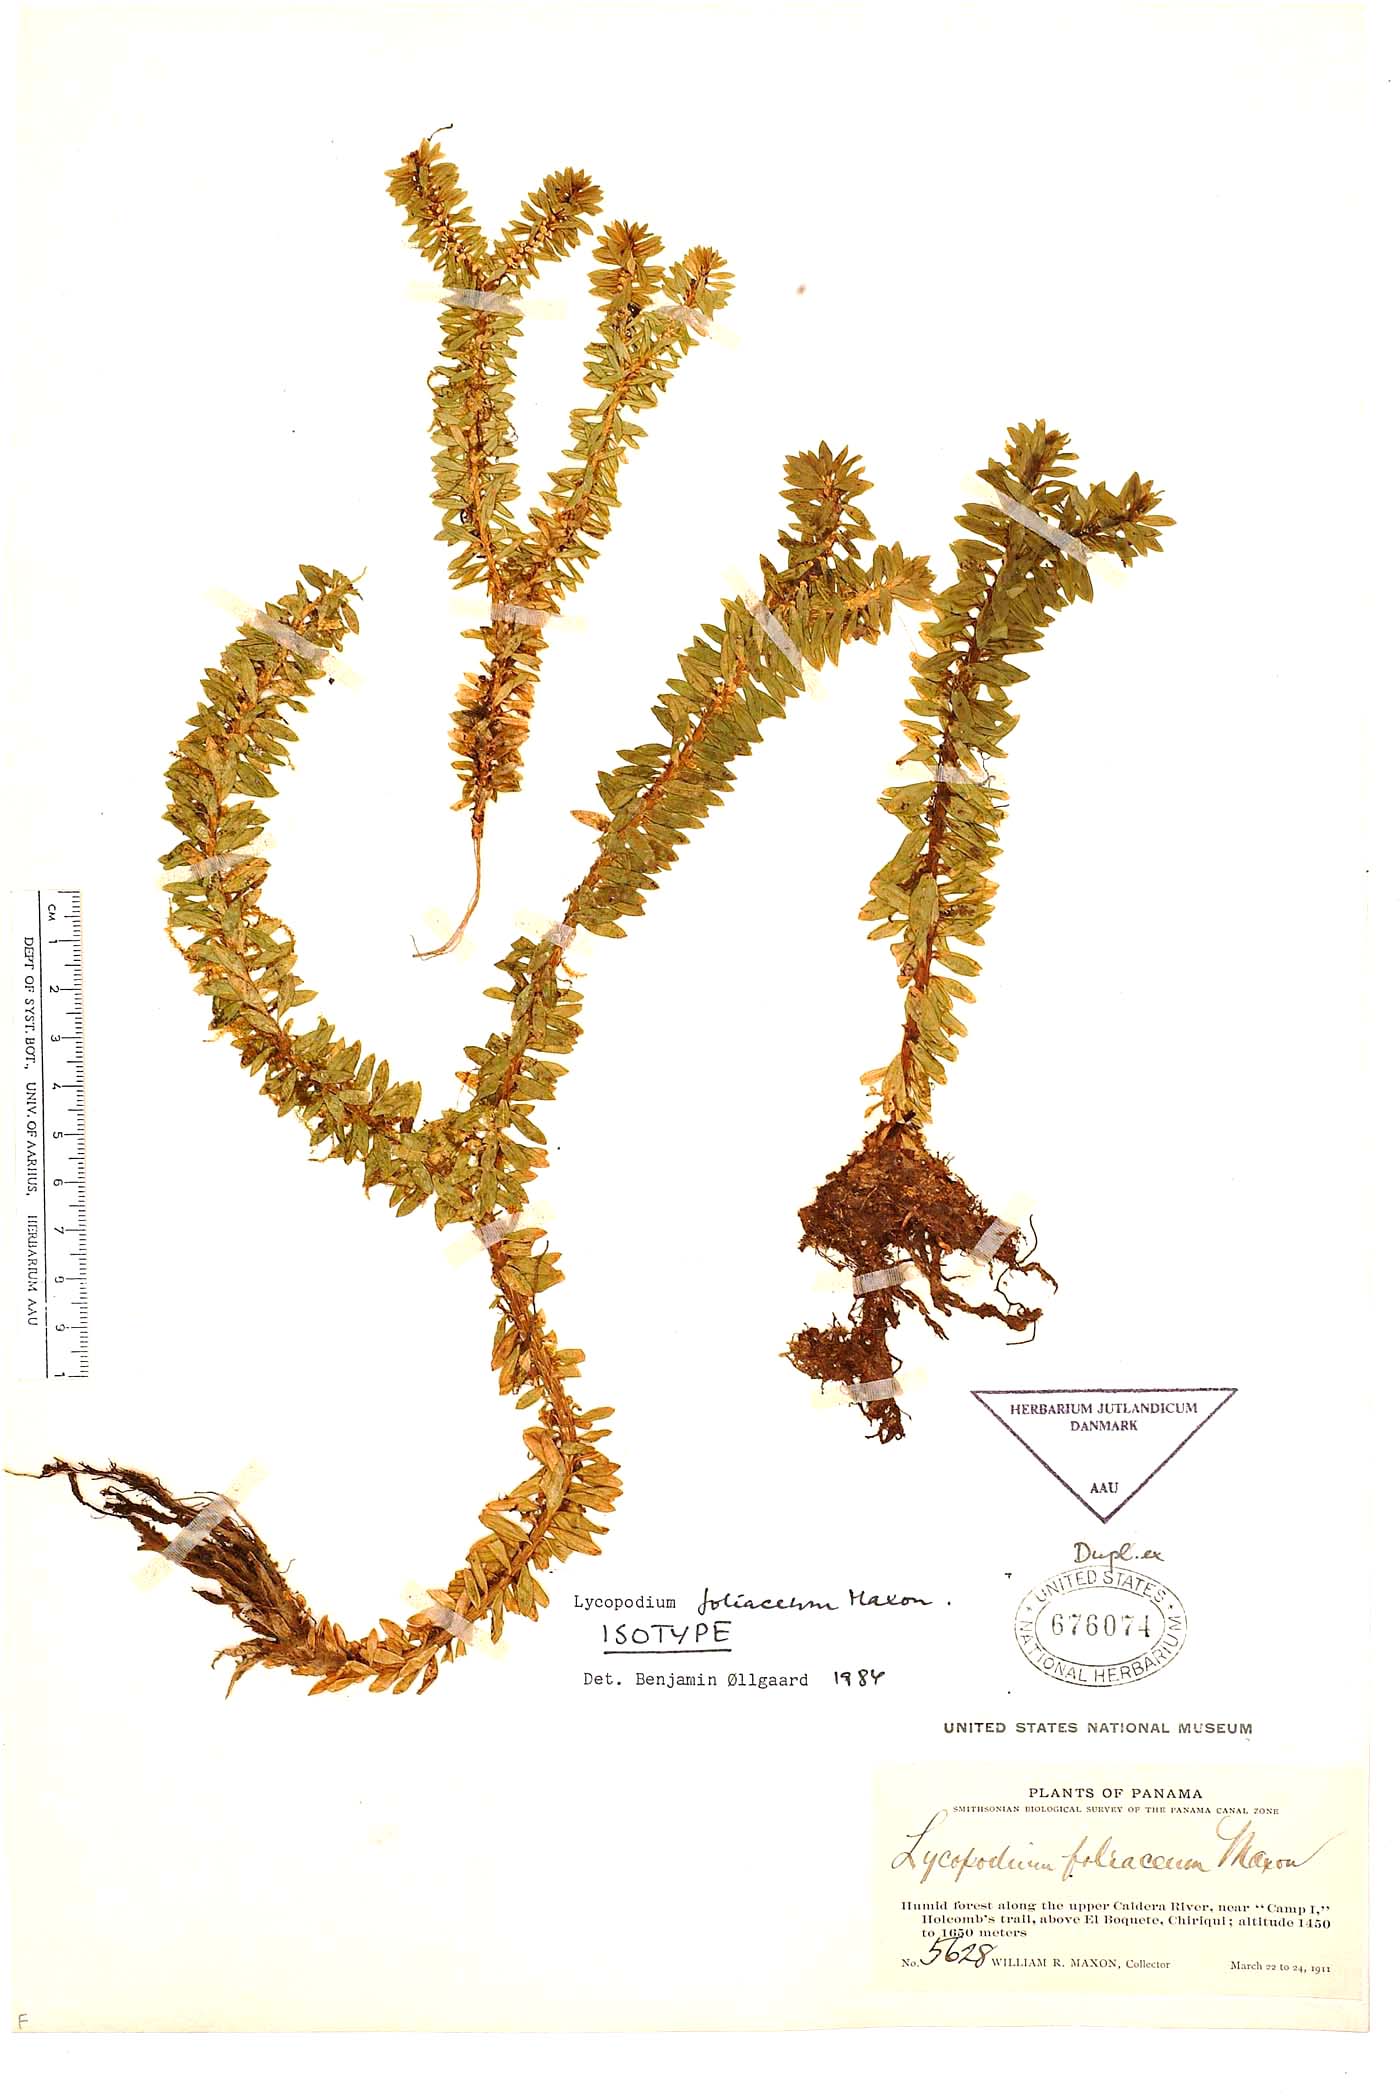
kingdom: Plantae
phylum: Tracheophyta
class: Lycopodiopsida
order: Lycopodiales
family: Lycopodiaceae
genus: Phlegmariurus
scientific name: Phlegmariurus foliaceus
